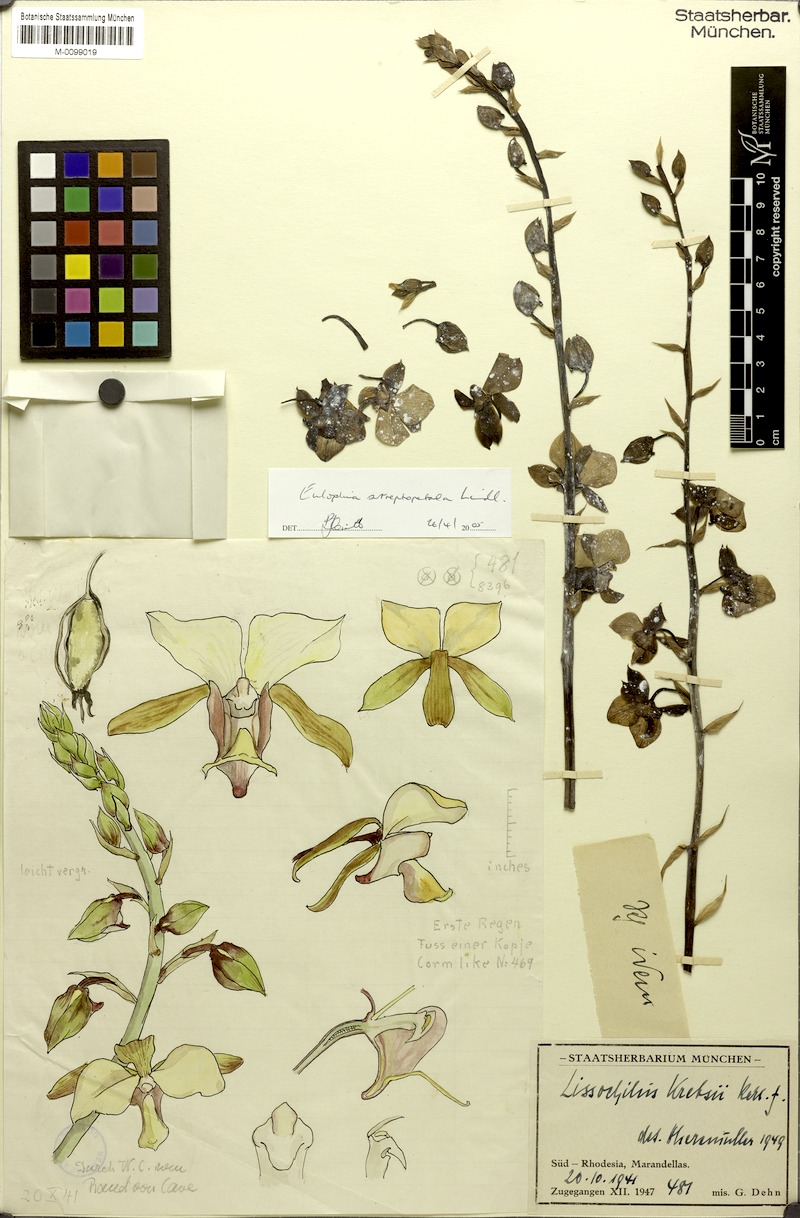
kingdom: Plantae
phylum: Tracheophyta
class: Liliopsida
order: Asparagales
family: Orchidaceae
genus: Eulophia
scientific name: Eulophia streptopetala
